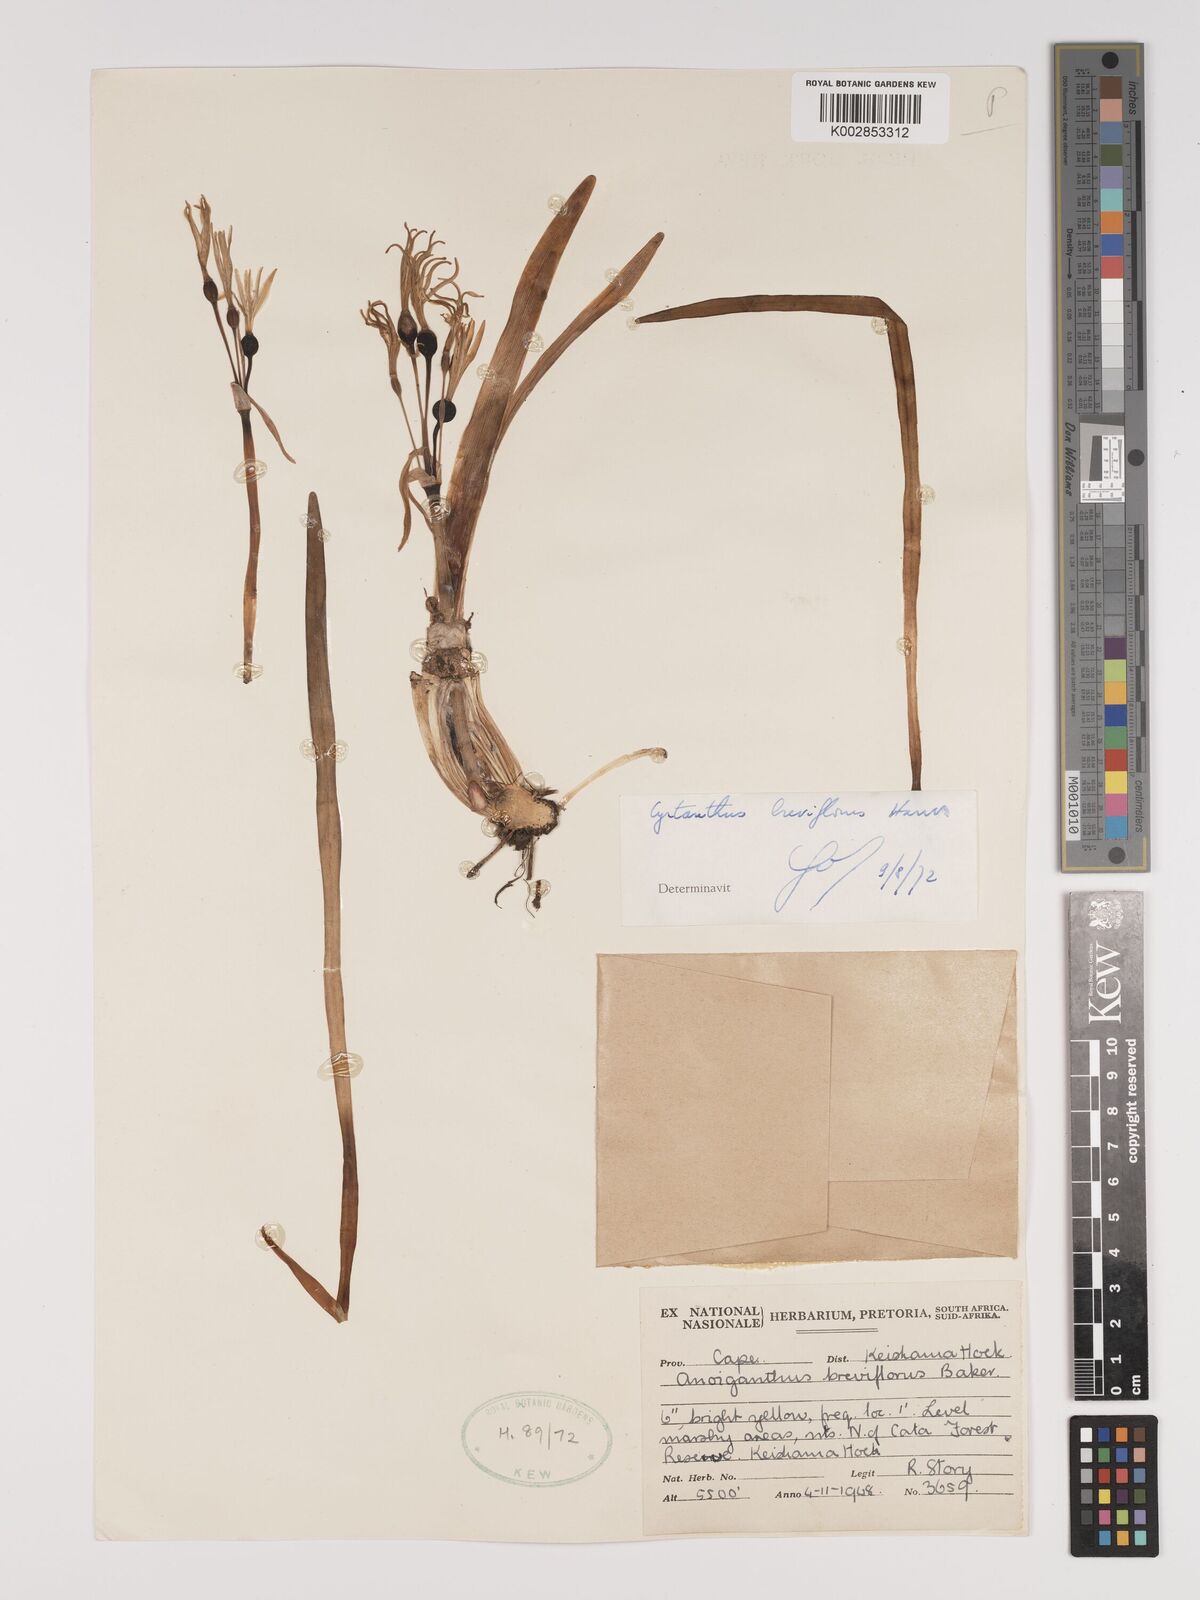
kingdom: Plantae
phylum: Tracheophyta
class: Liliopsida
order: Asparagales
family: Amaryllidaceae
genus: Cyrtanthus
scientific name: Cyrtanthus breviflorus
